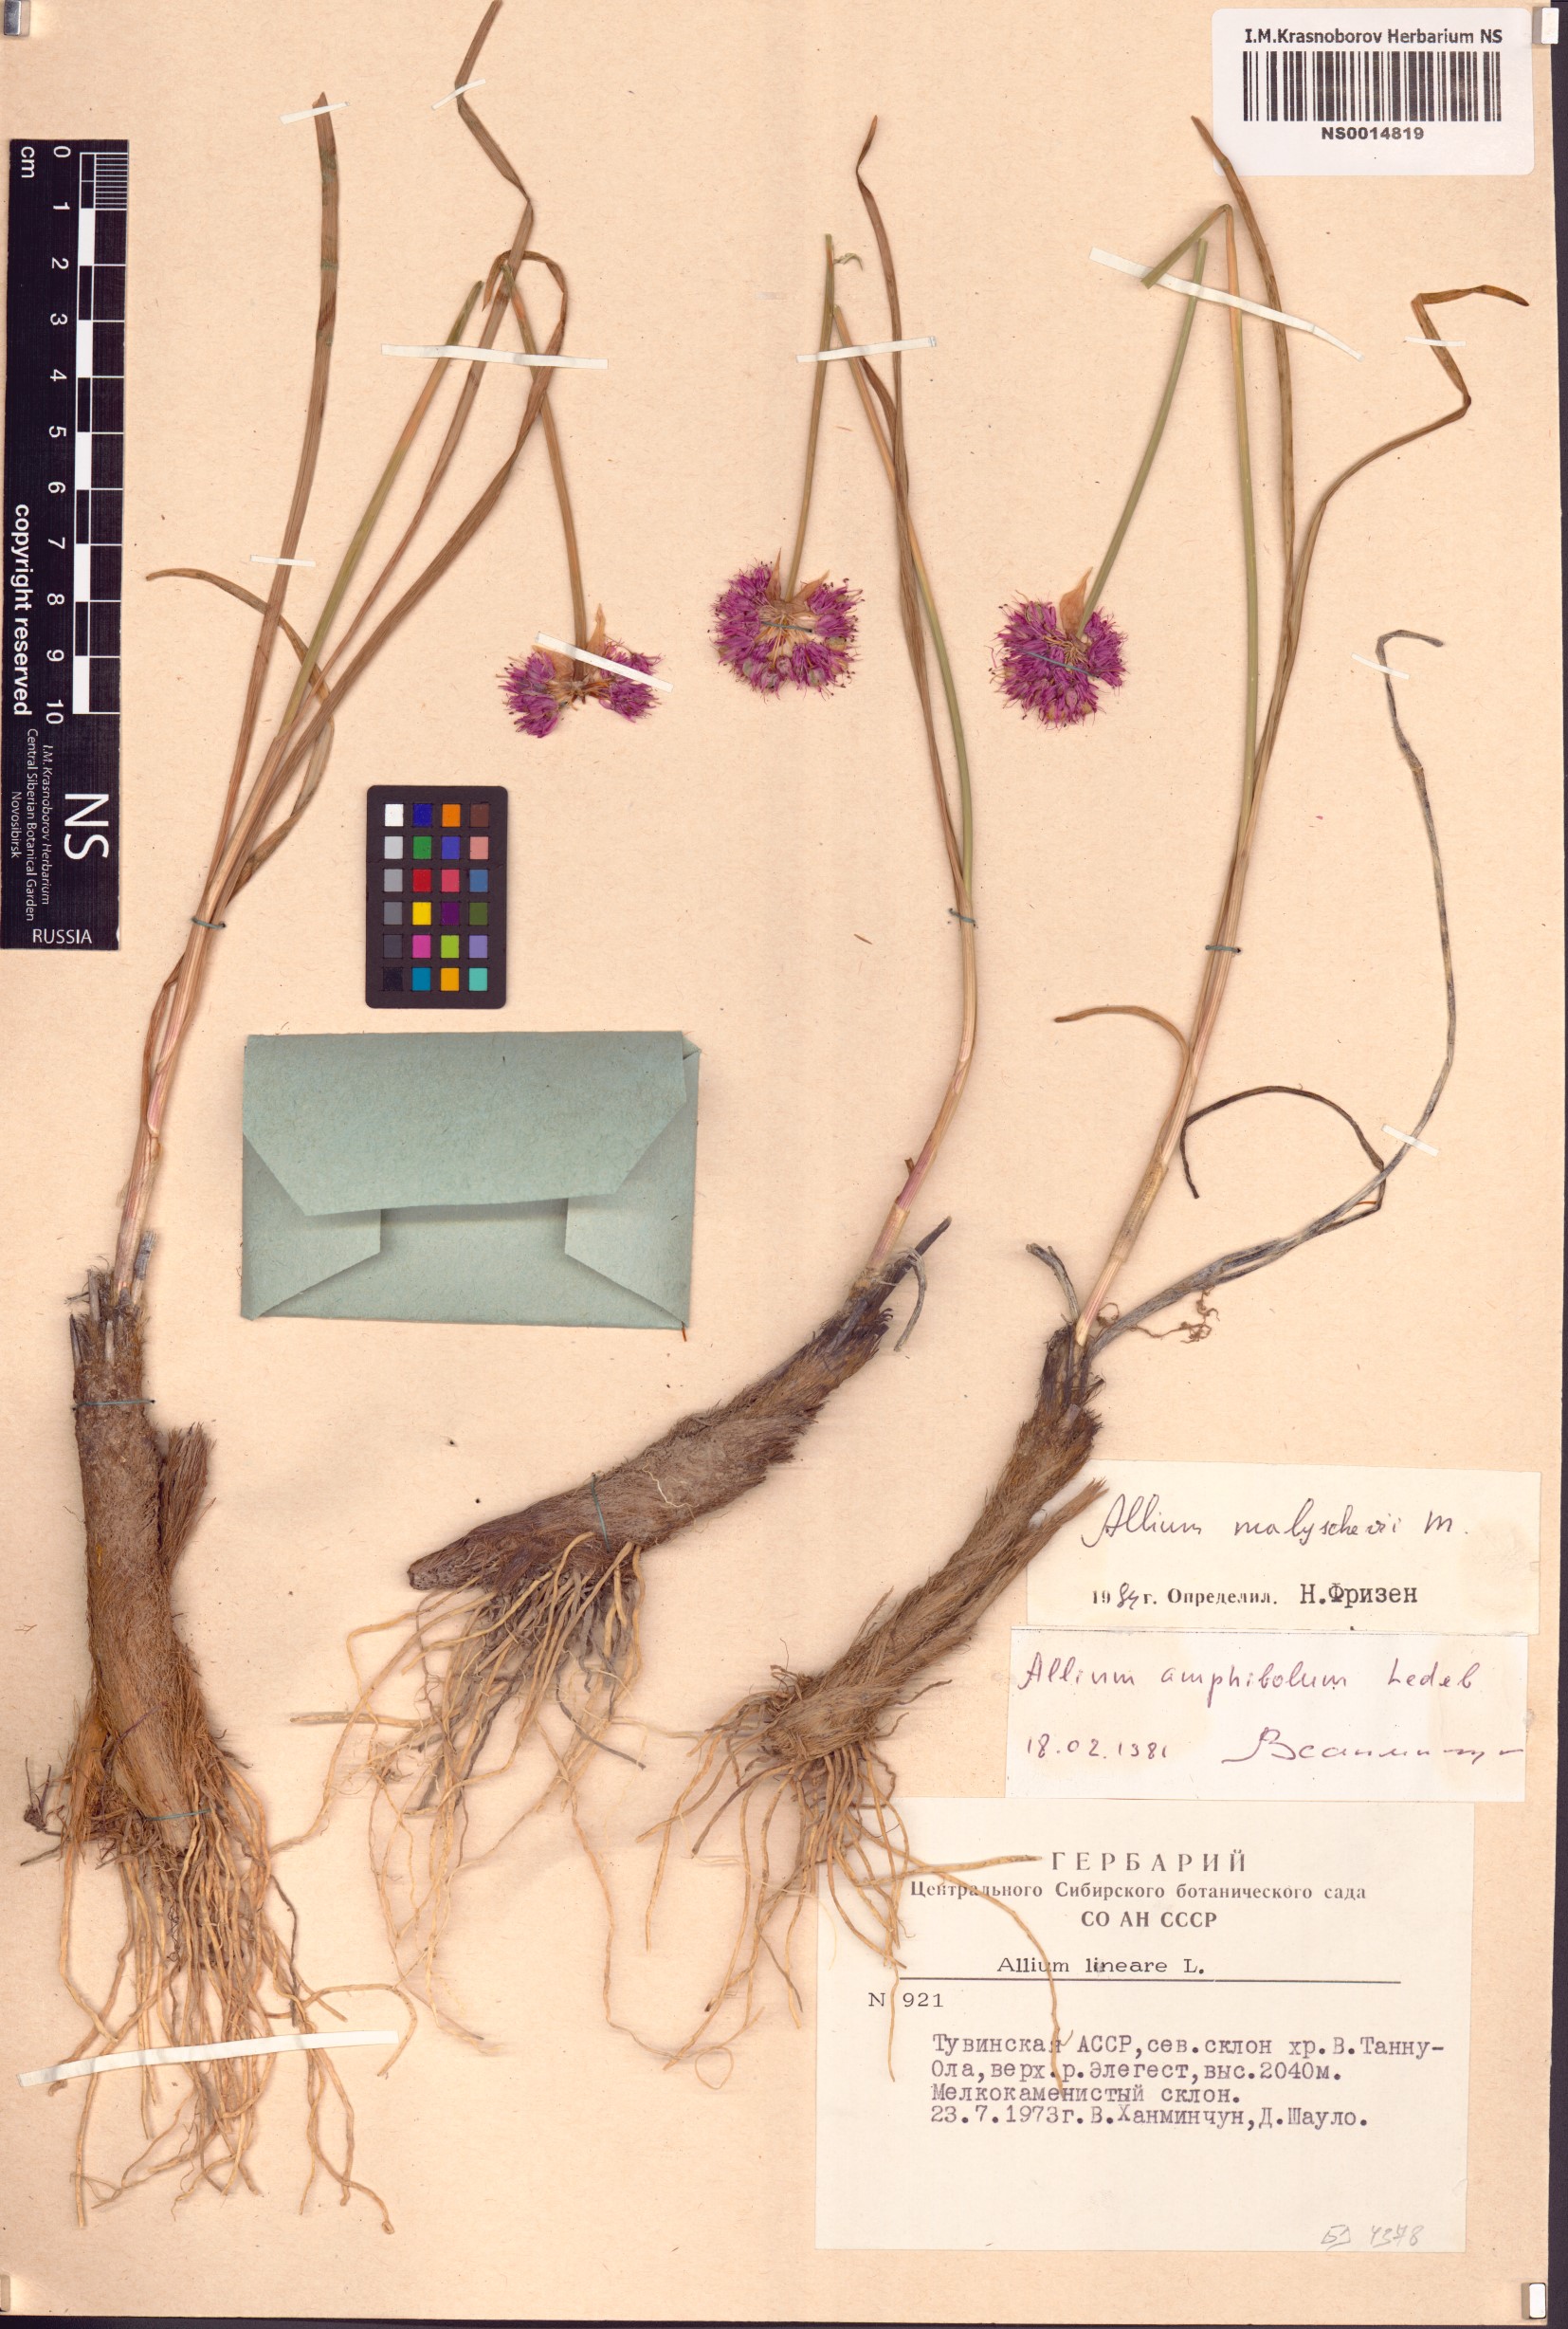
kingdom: Plantae
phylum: Tracheophyta
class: Liliopsida
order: Asparagales
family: Amaryllidaceae
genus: Allium
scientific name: Allium malyschevii
